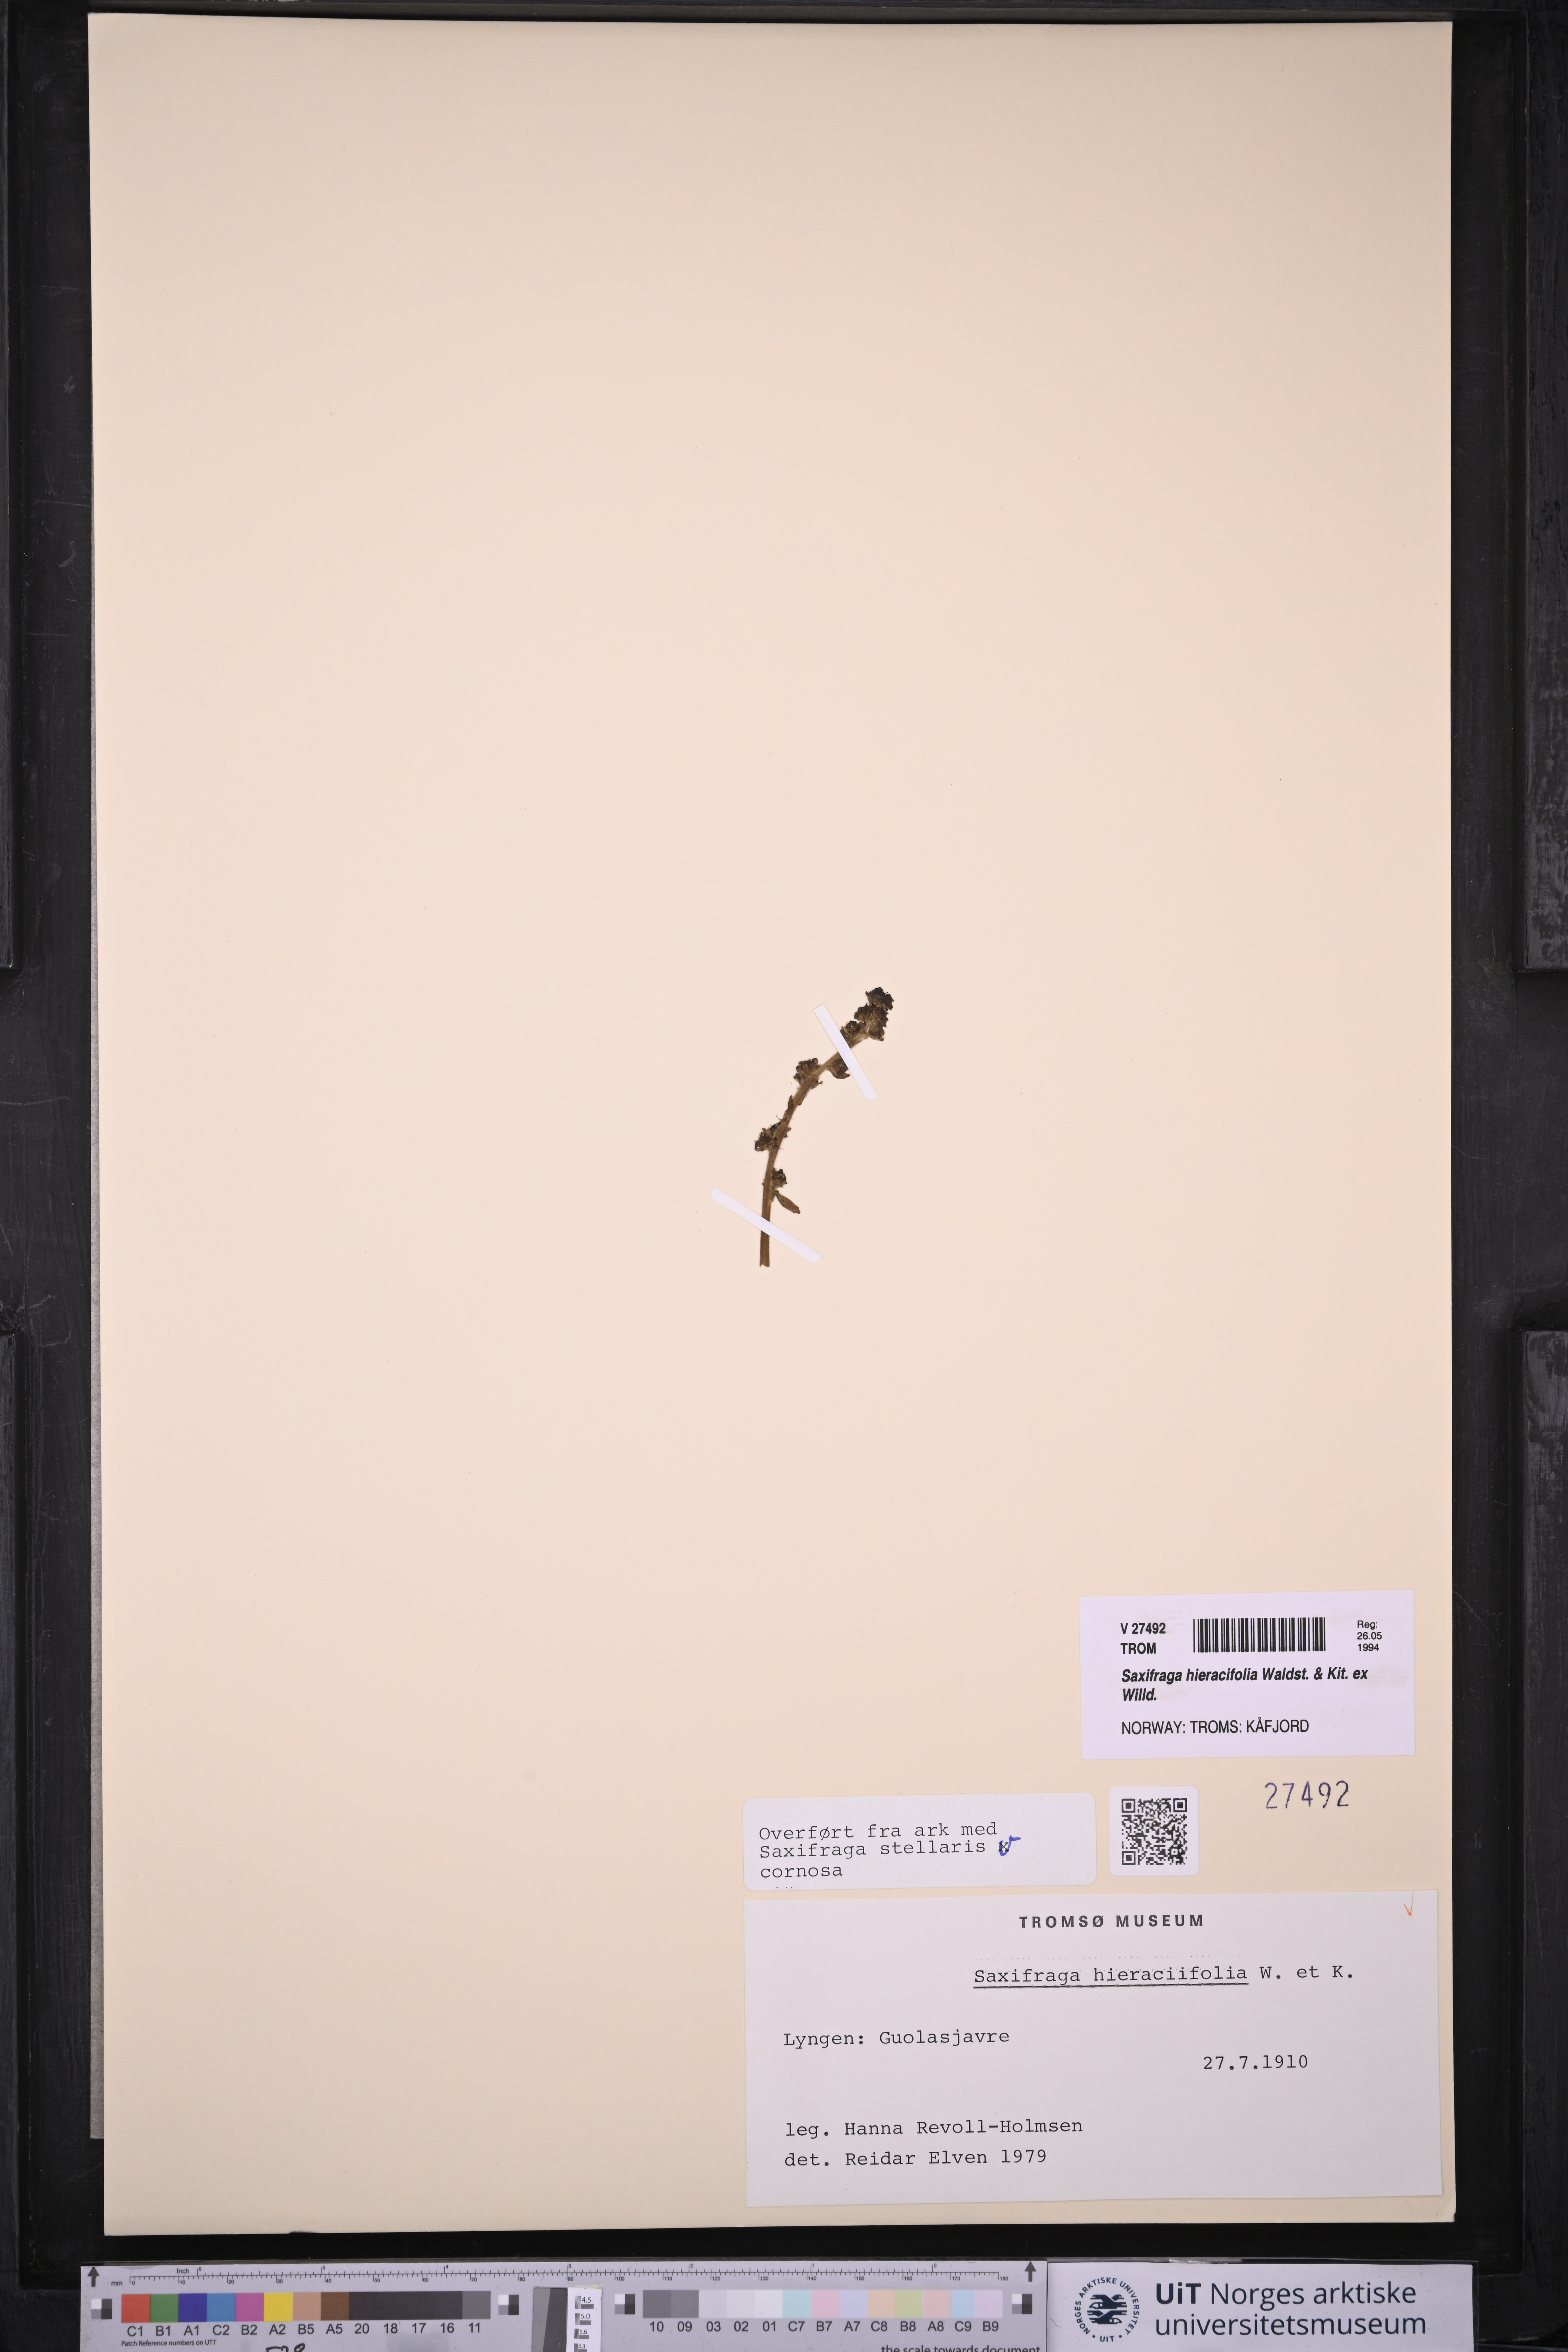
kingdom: Plantae
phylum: Tracheophyta
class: Magnoliopsida
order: Saxifragales
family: Saxifragaceae
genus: Micranthes
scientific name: Micranthes hieraciifolia
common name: Hawkweed-leaved saxifrage
